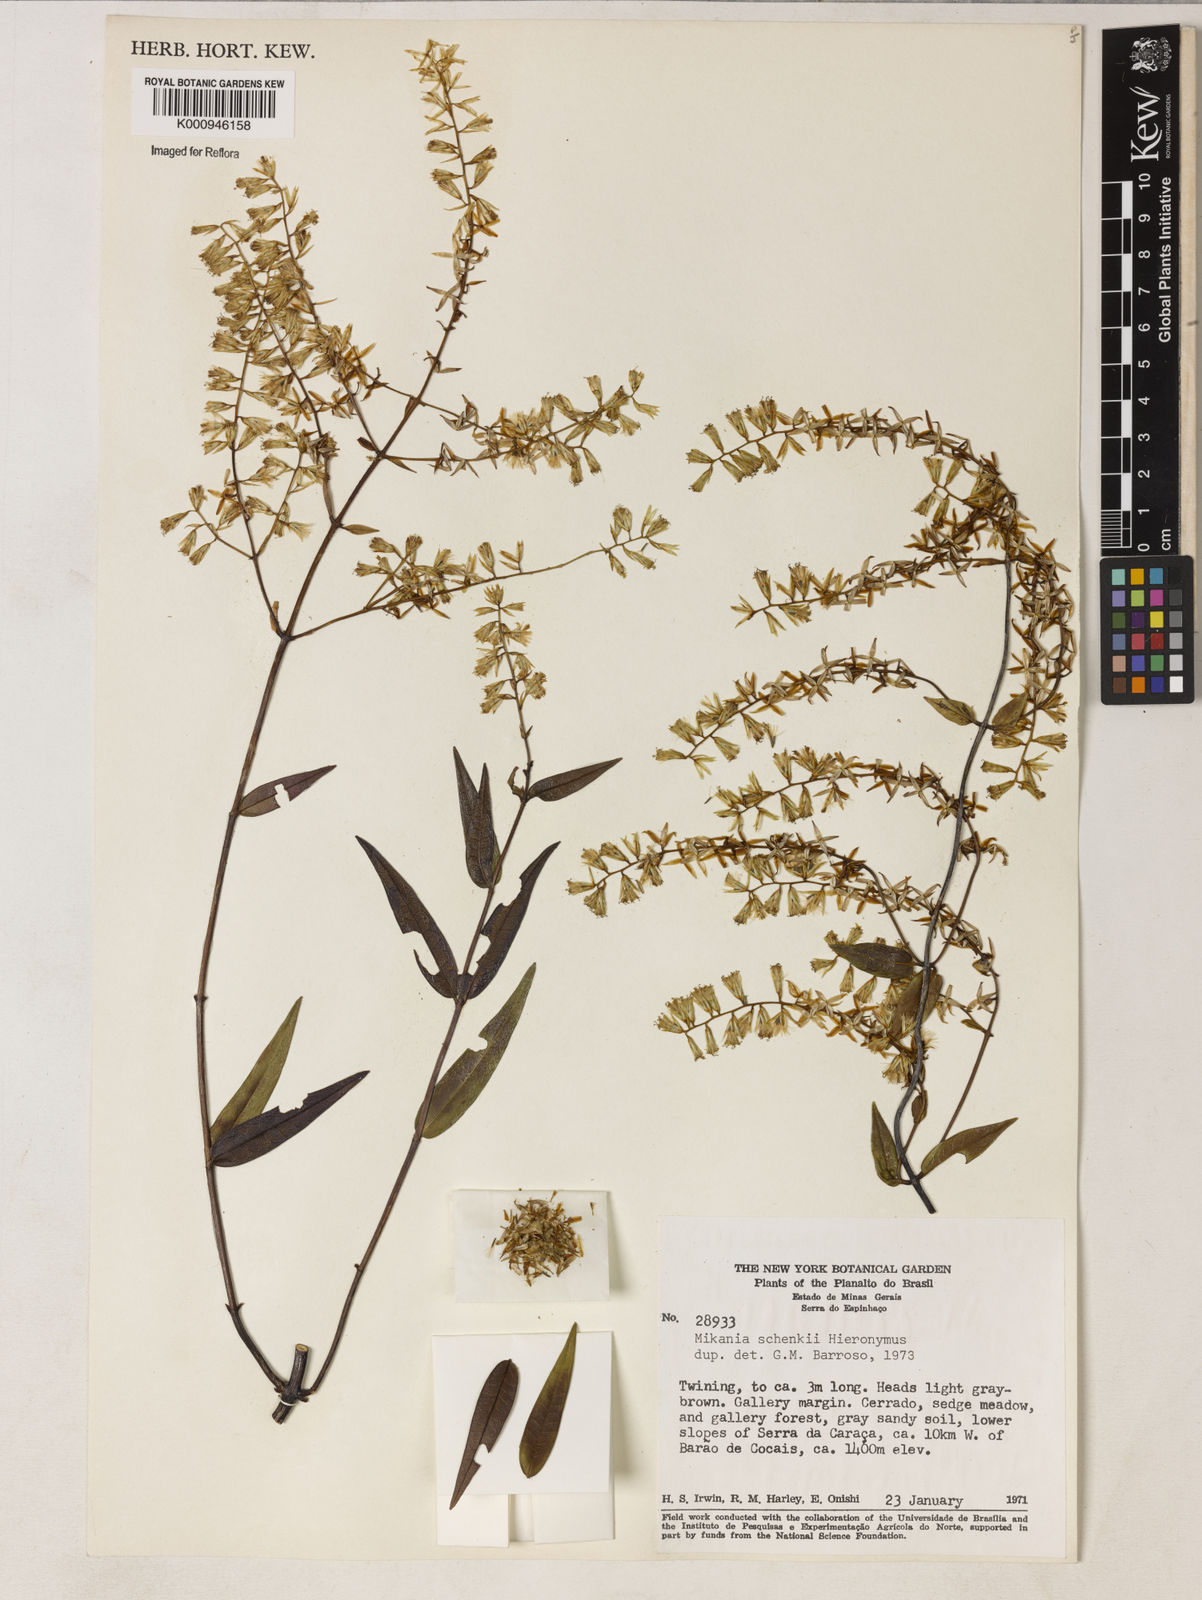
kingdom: Plantae
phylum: Tracheophyta
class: Magnoliopsida
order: Asterales
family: Asteraceae
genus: Mikania
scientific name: Mikania
